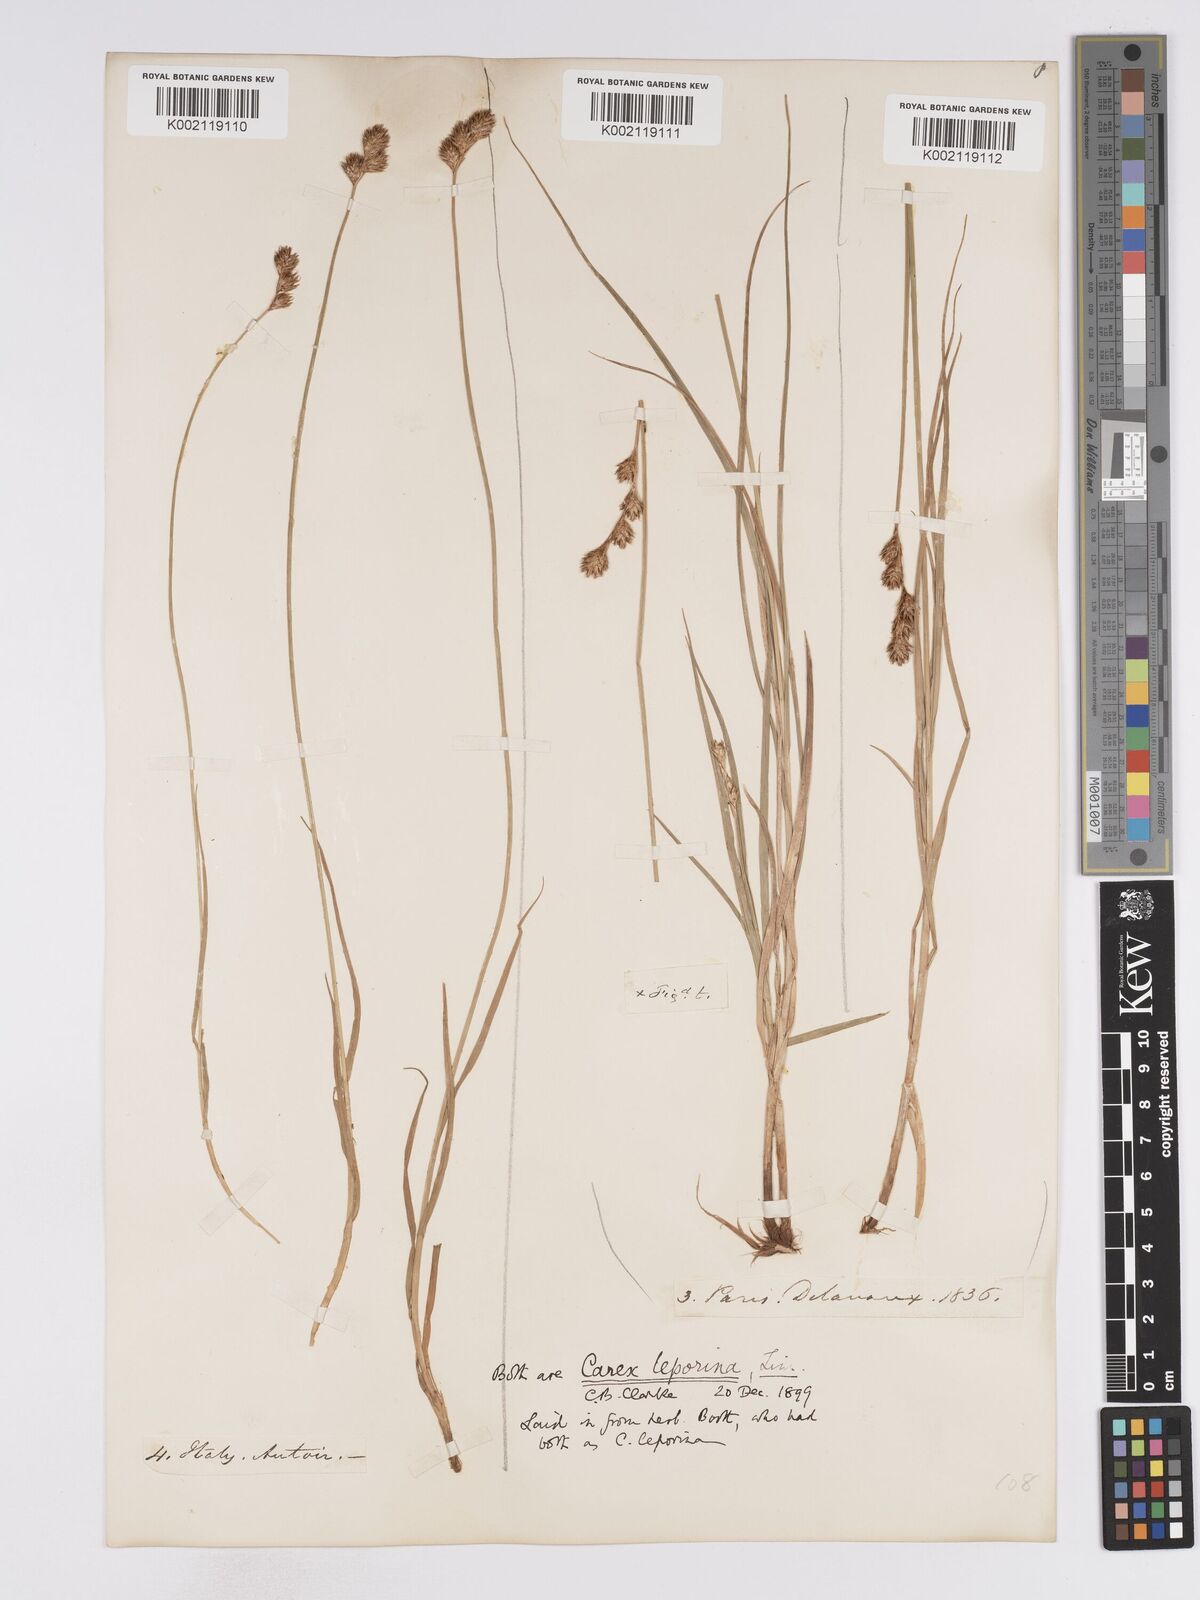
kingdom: Plantae
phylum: Tracheophyta
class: Liliopsida
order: Poales
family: Cyperaceae
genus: Carex
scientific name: Carex leporina
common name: Oval sedge
